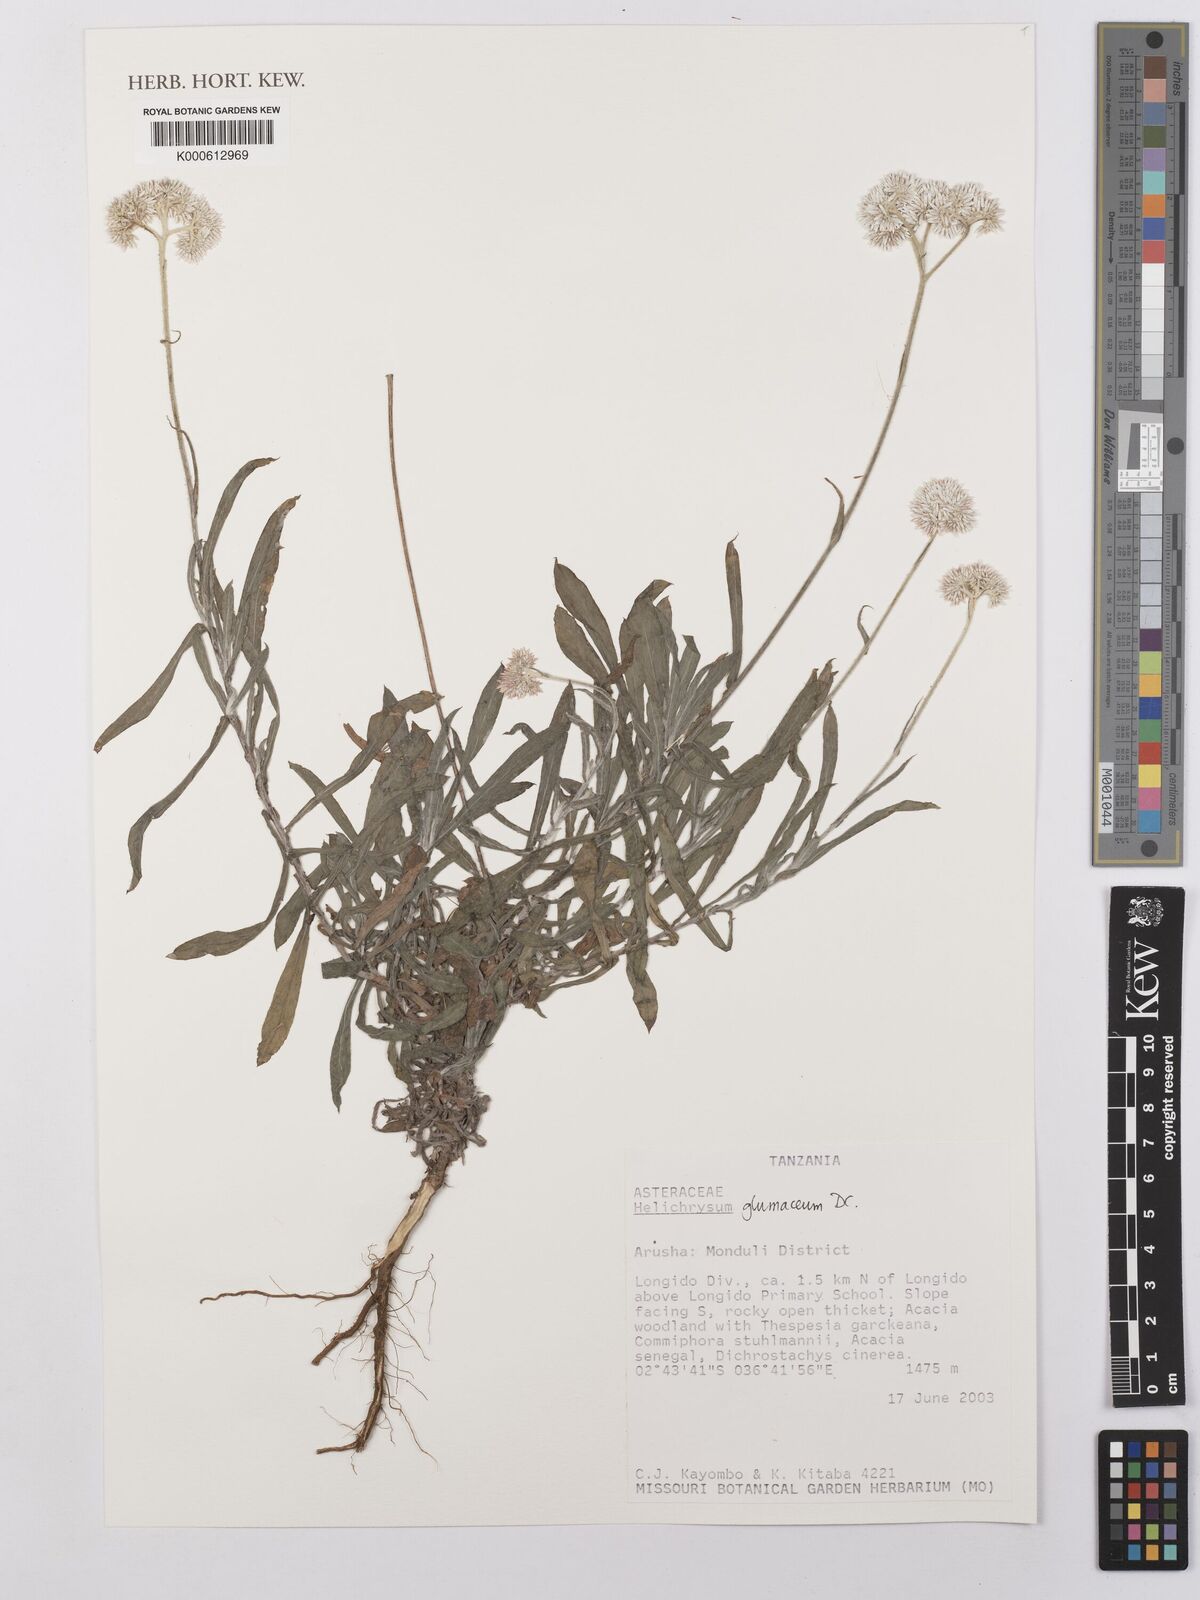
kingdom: Plantae
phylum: Tracheophyta
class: Magnoliopsida
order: Asterales
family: Asteraceae
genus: Helichrysum
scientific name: Helichrysum glumaceum
